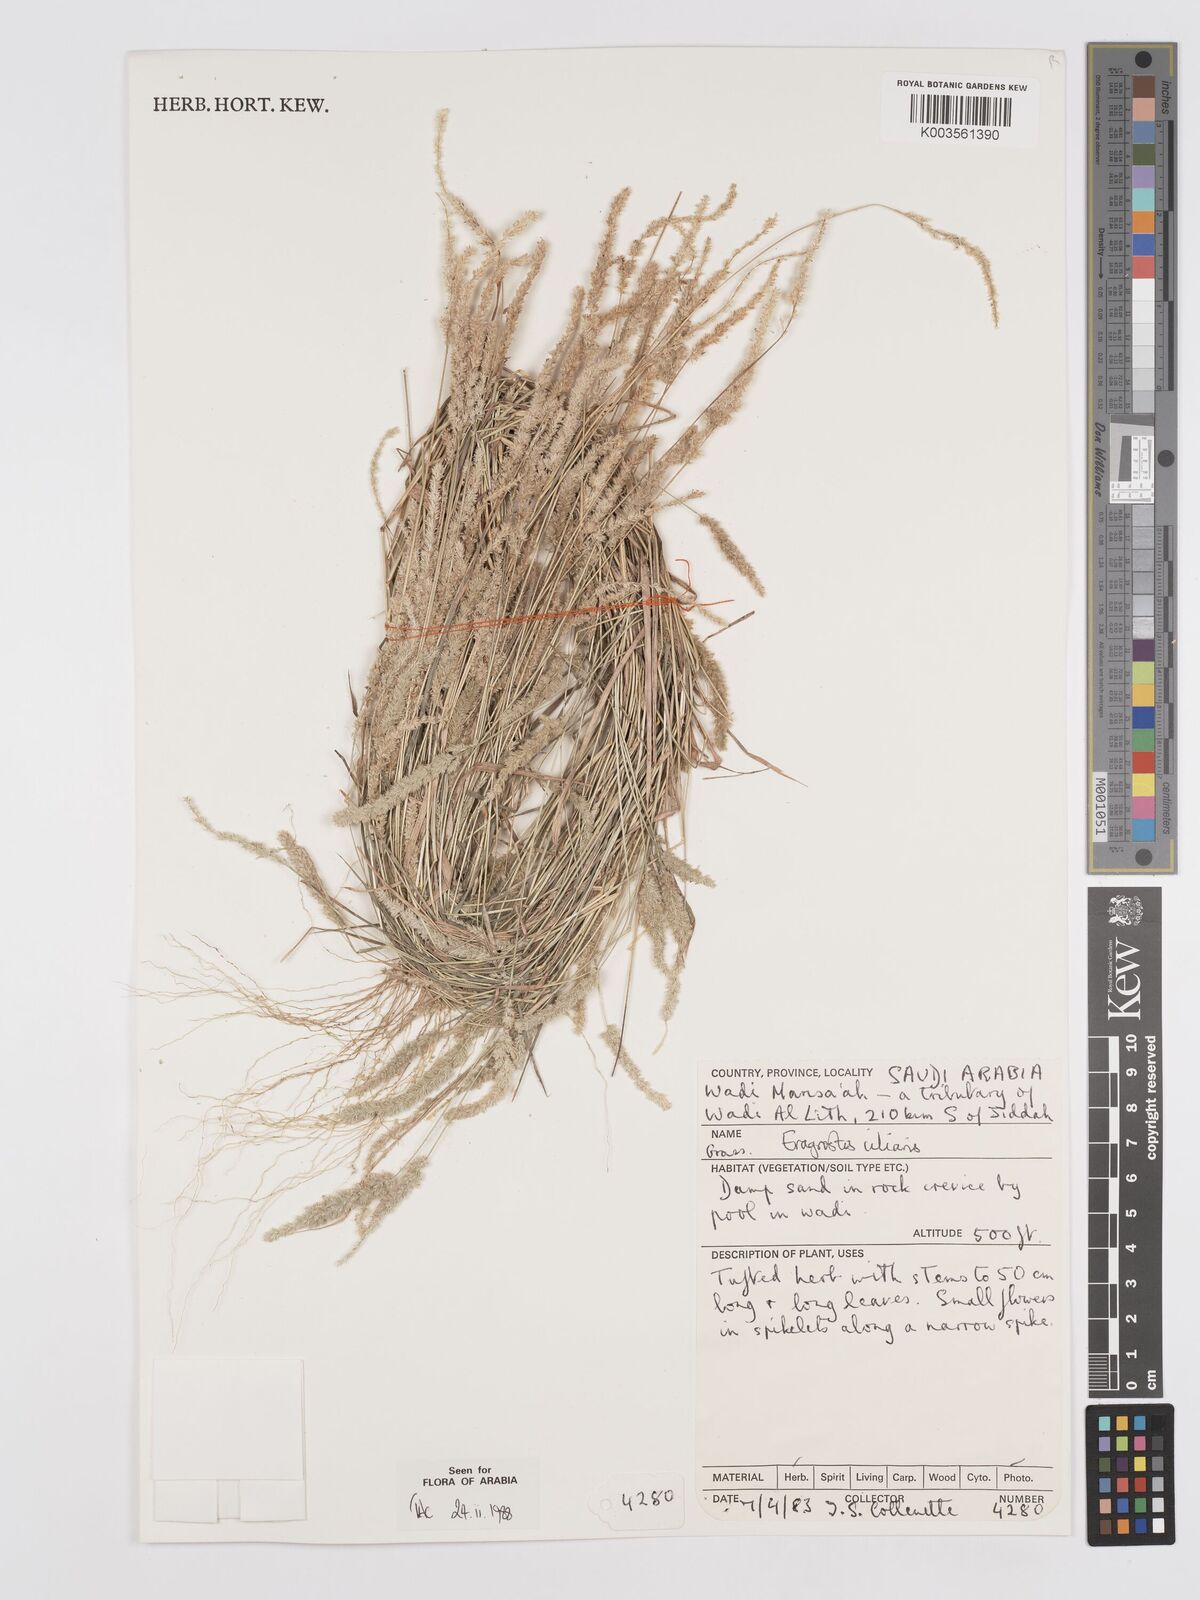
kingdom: Plantae
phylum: Tracheophyta
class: Liliopsida
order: Poales
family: Poaceae
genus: Eragrostis
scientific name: Eragrostis ciliaris
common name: Gophertail lovegrass
